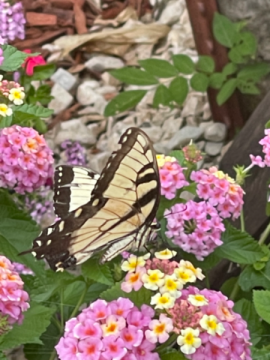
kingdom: Animalia
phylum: Arthropoda
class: Insecta
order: Lepidoptera
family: Papilionidae
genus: Pterourus
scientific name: Pterourus glaucus
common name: Eastern Tiger Swallowtail
